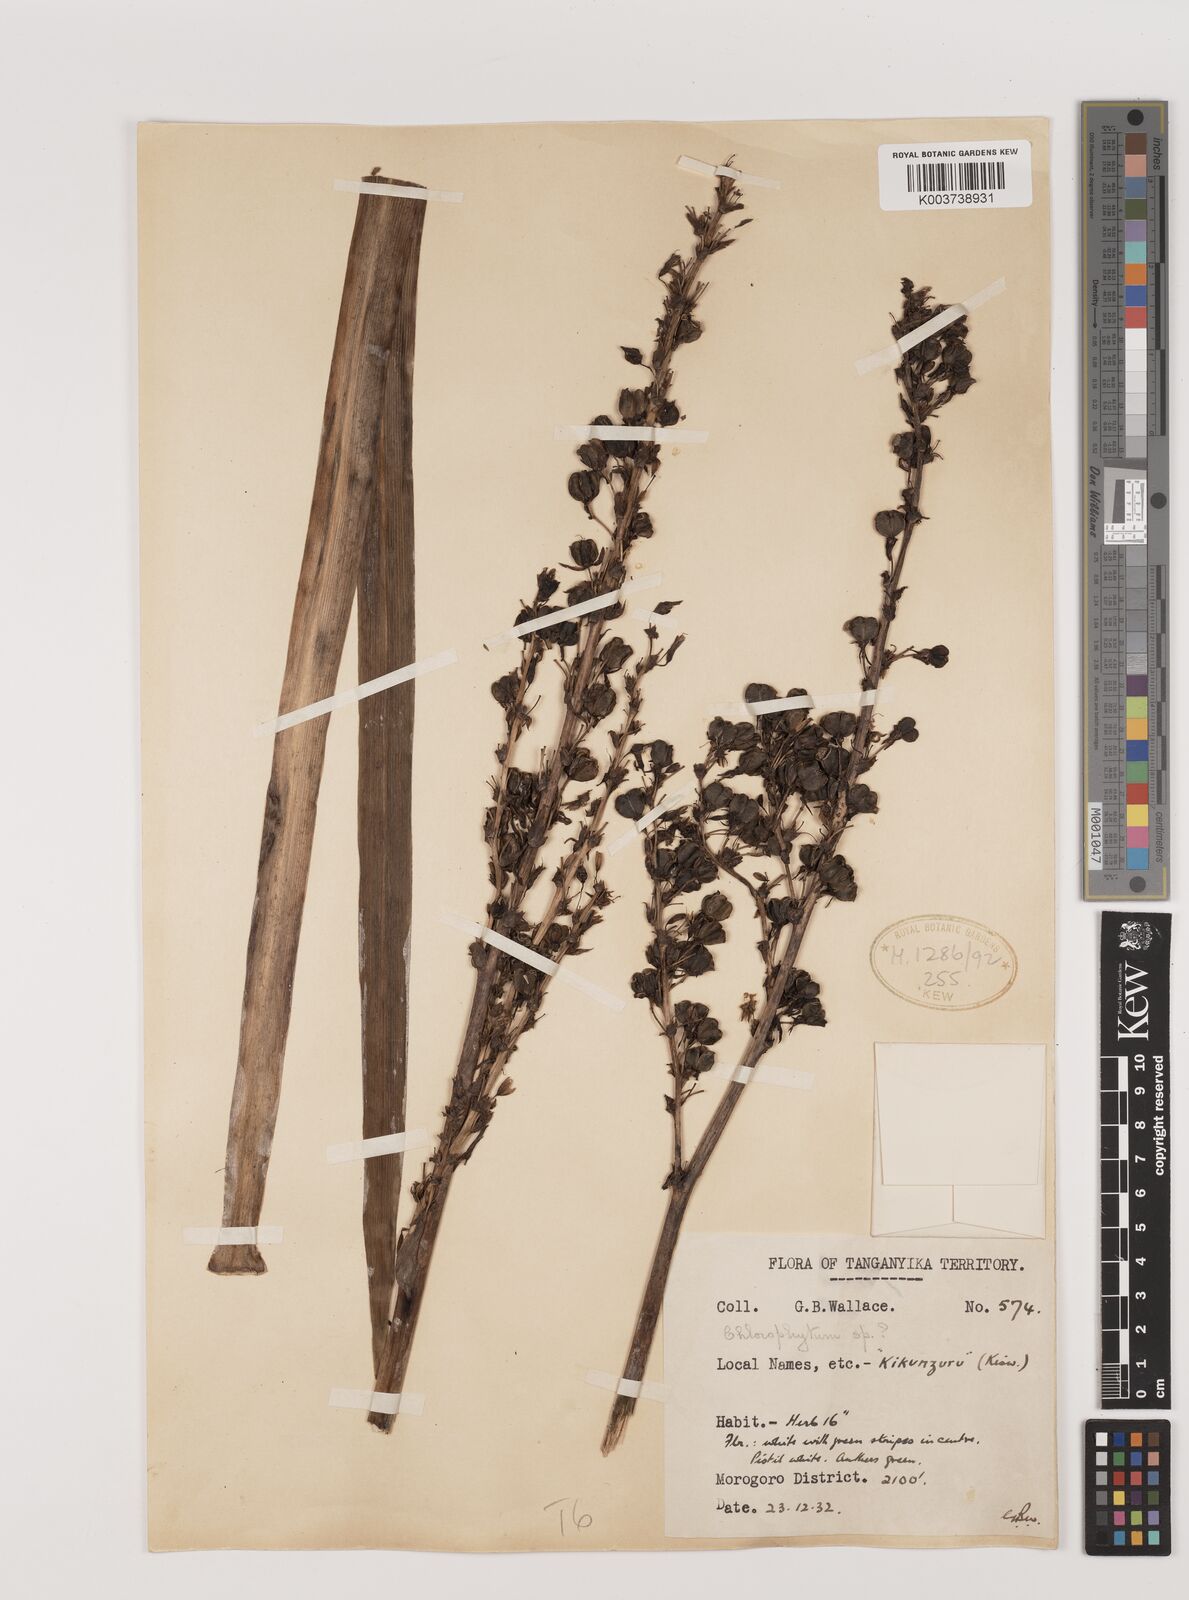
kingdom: Plantae
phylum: Tracheophyta
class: Liliopsida
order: Asparagales
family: Asparagaceae
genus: Chlorophytum
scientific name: Chlorophytum comosum
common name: Spider plant
